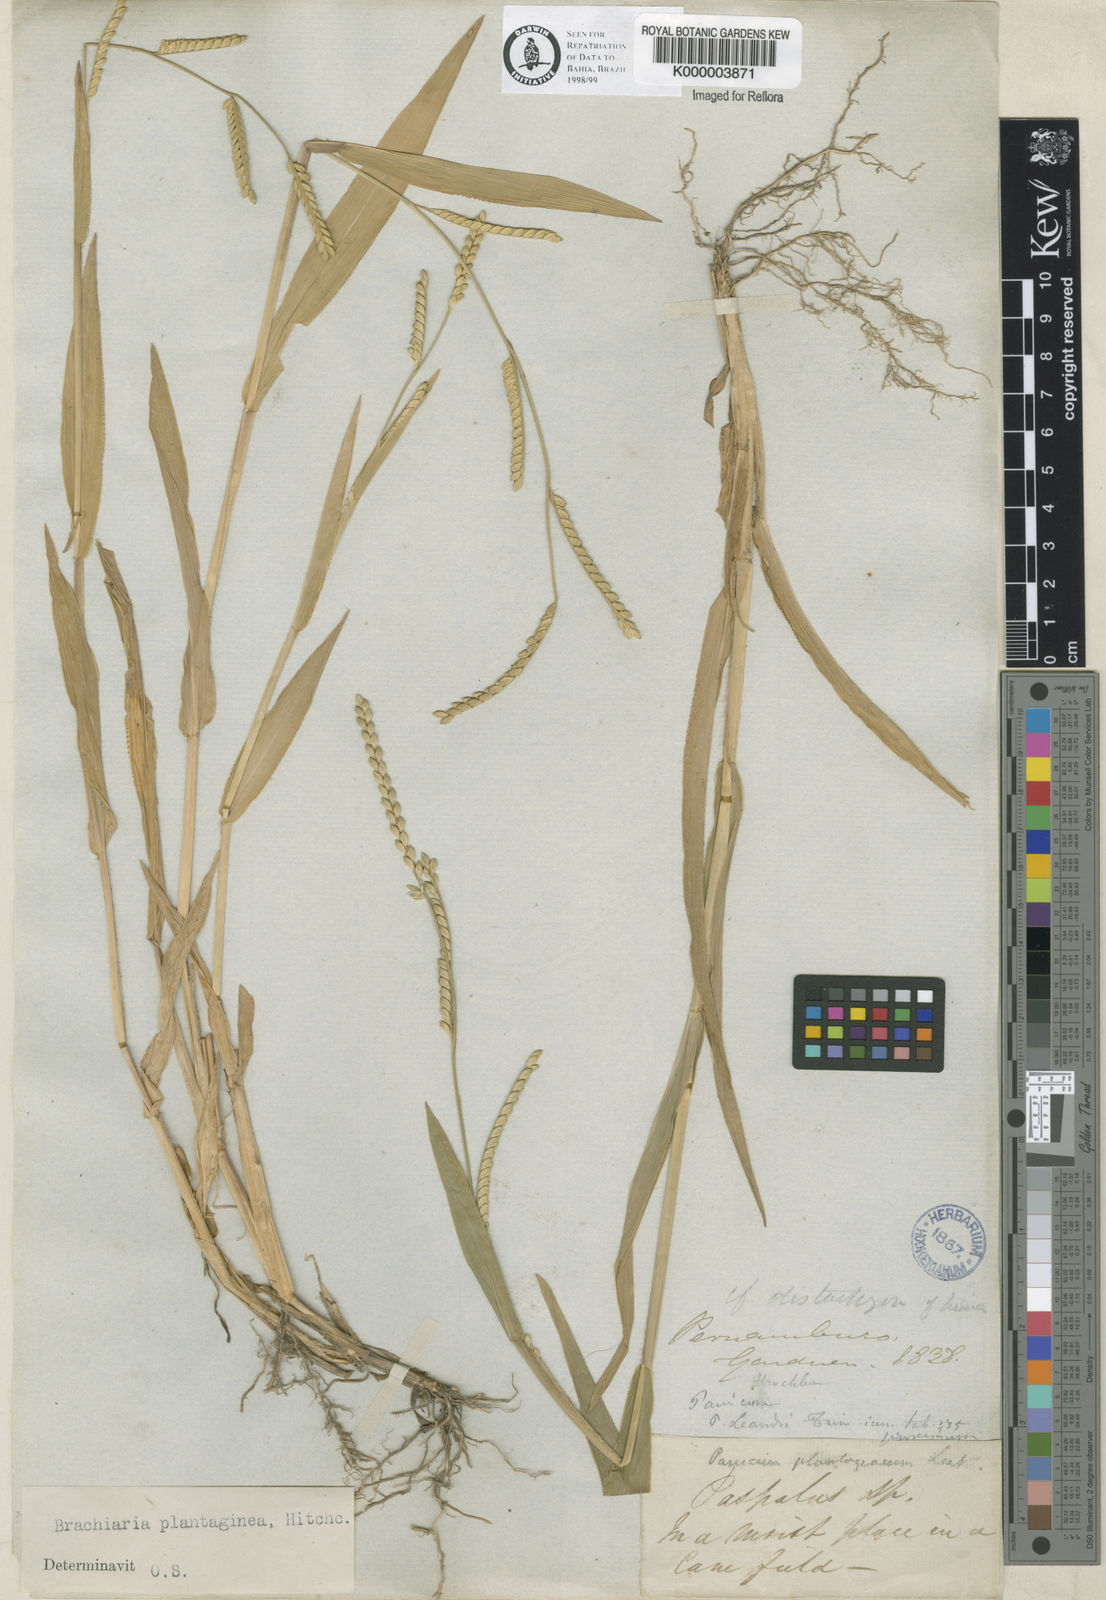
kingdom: Plantae
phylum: Tracheophyta
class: Liliopsida
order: Poales
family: Poaceae
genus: Urochloa
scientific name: Urochloa plantaginea
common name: Plantain signalgrass
